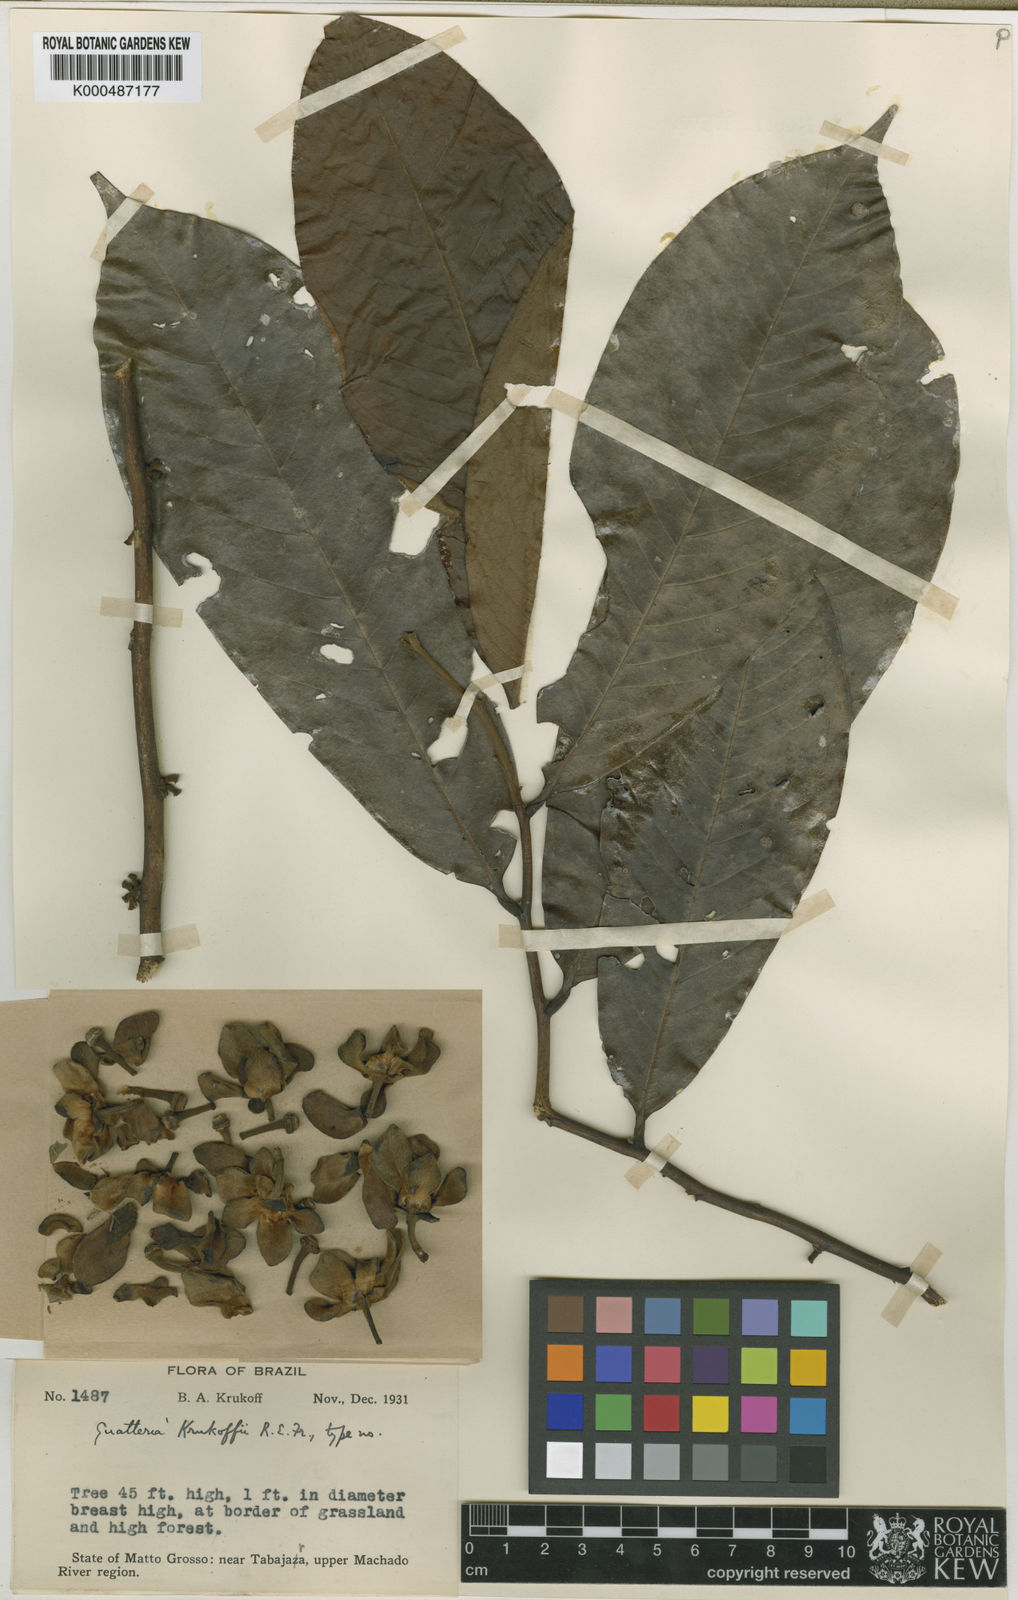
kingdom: Plantae
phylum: Tracheophyta
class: Magnoliopsida
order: Magnoliales
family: Annonaceae
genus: Guatteria
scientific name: Guatteria scytophylla
